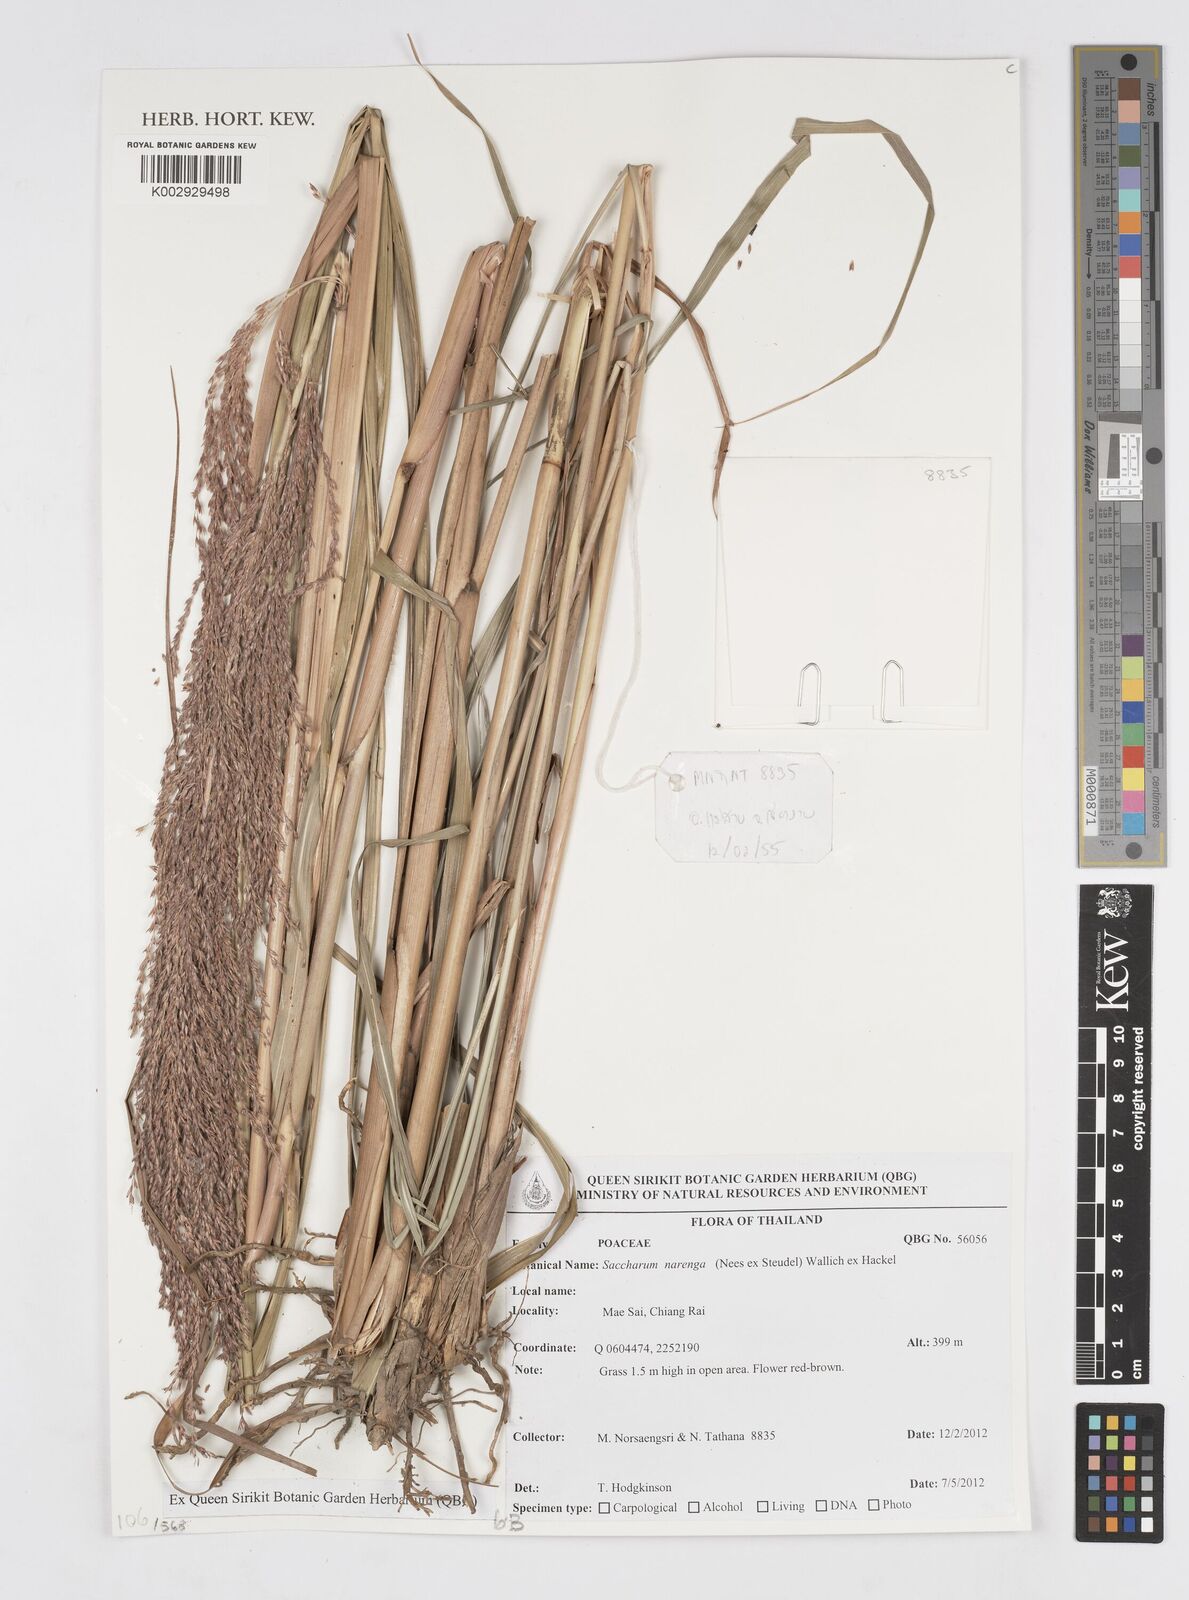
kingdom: Plantae
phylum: Tracheophyta
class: Liliopsida
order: Poales
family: Poaceae
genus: Narenga
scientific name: Narenga porphyrocoma
